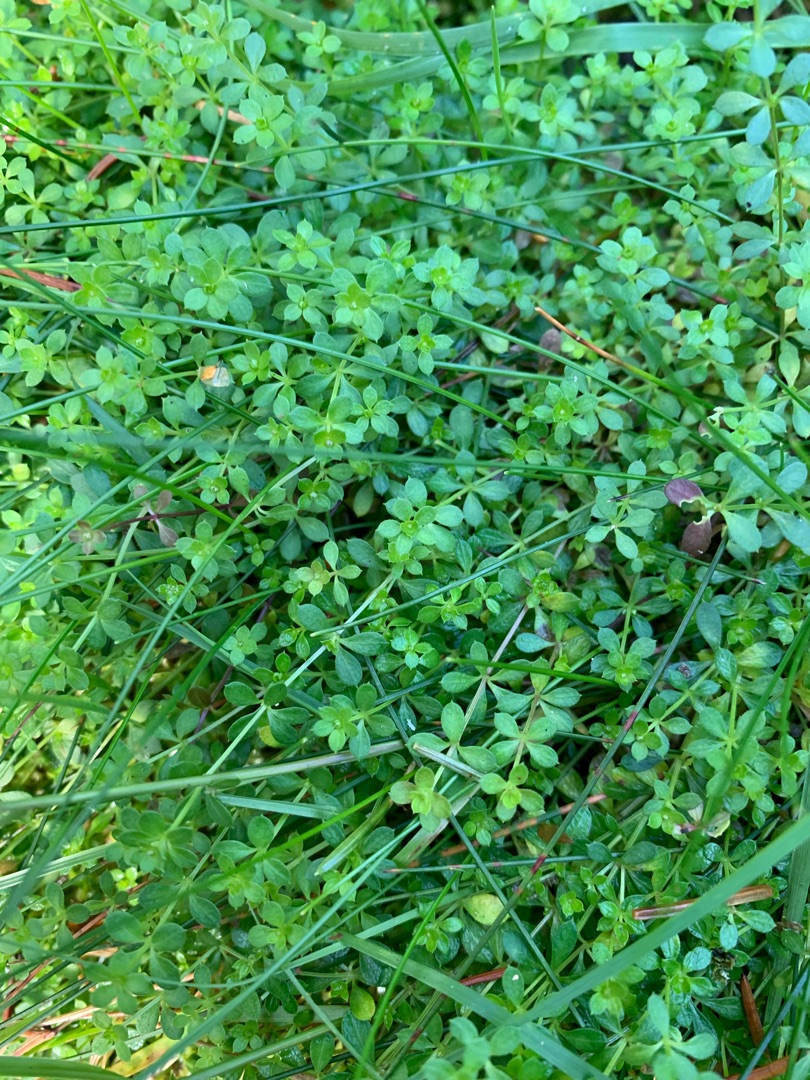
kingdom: Plantae
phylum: Tracheophyta
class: Magnoliopsida
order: Gentianales
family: Rubiaceae
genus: Galium
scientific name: Galium saxatile
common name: Lyng-snerre
